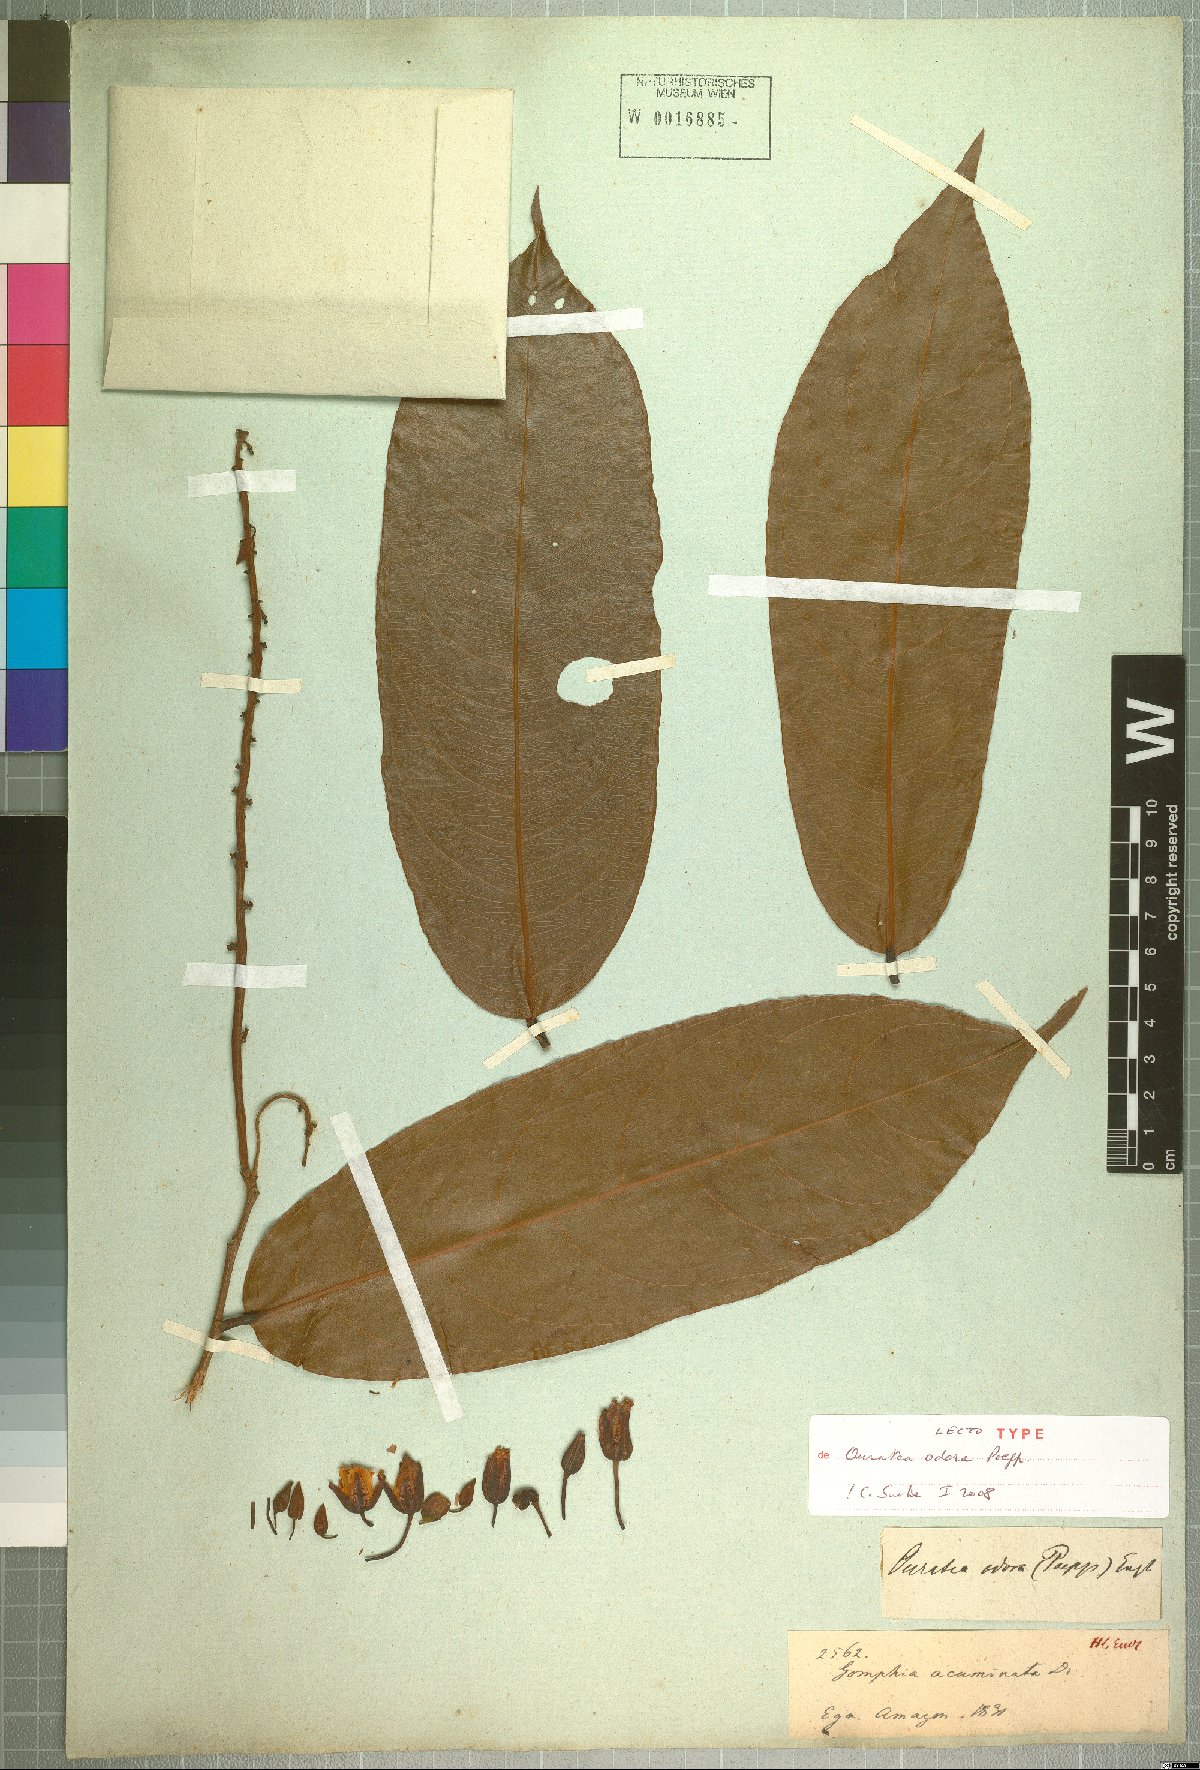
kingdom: Plantae
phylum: Tracheophyta
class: Magnoliopsida
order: Malpighiales
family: Ochnaceae
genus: Ouratea
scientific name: Ouratea superba
